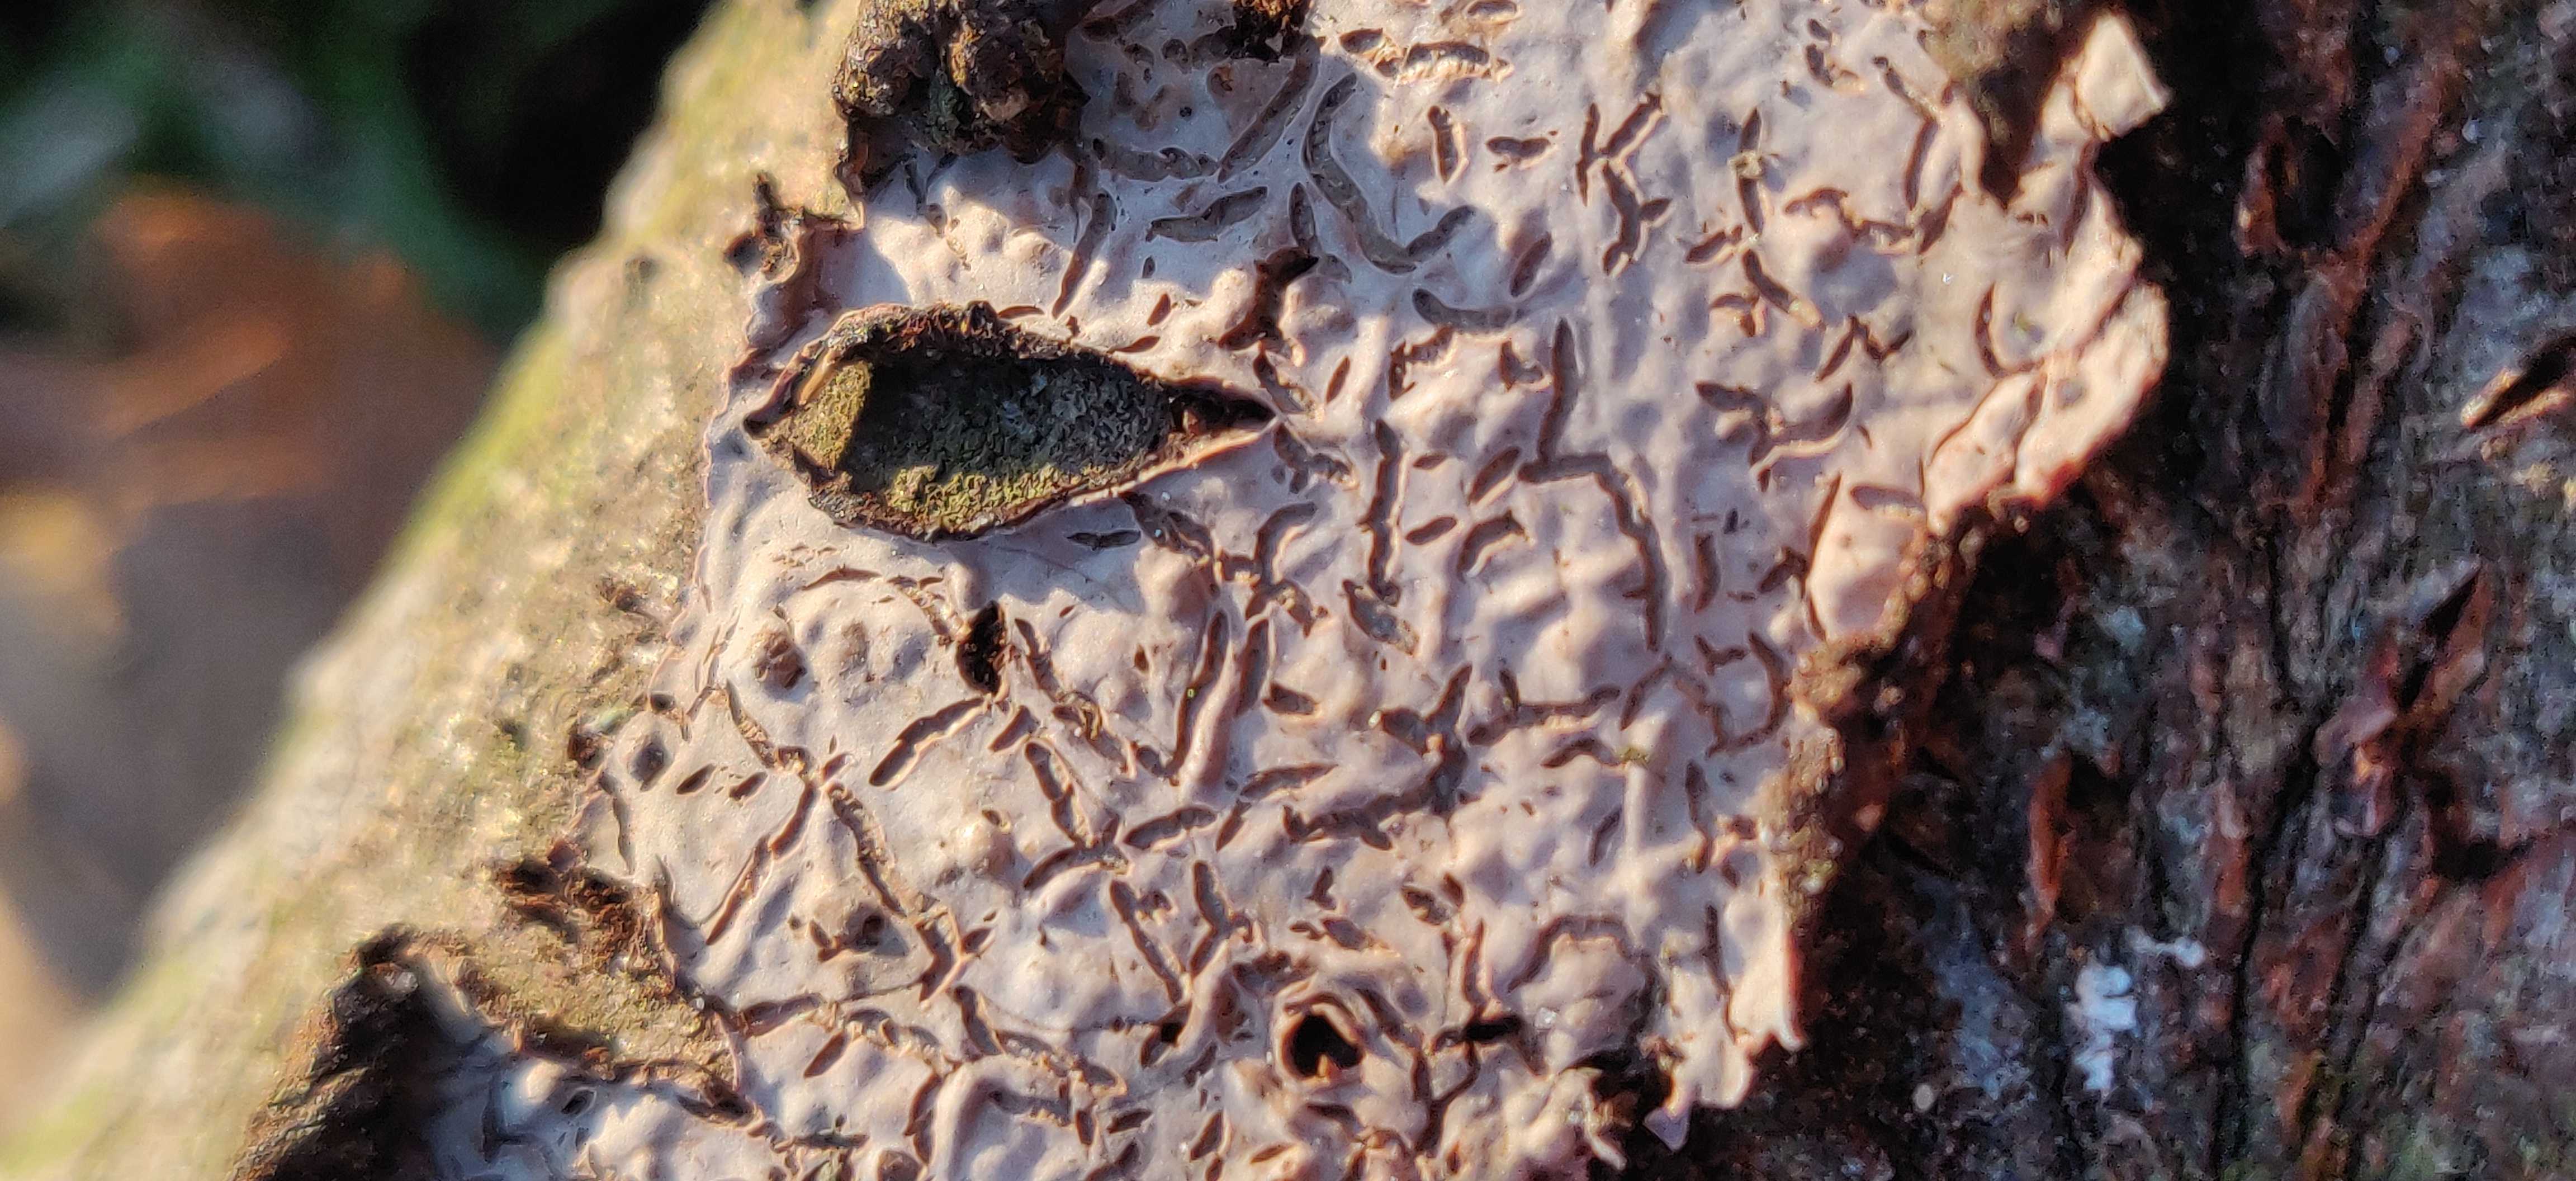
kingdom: Fungi
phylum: Basidiomycota
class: Agaricomycetes
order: Russulales
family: Peniophoraceae
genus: Peniophora
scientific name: Peniophora quercina
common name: ege-voksskind
